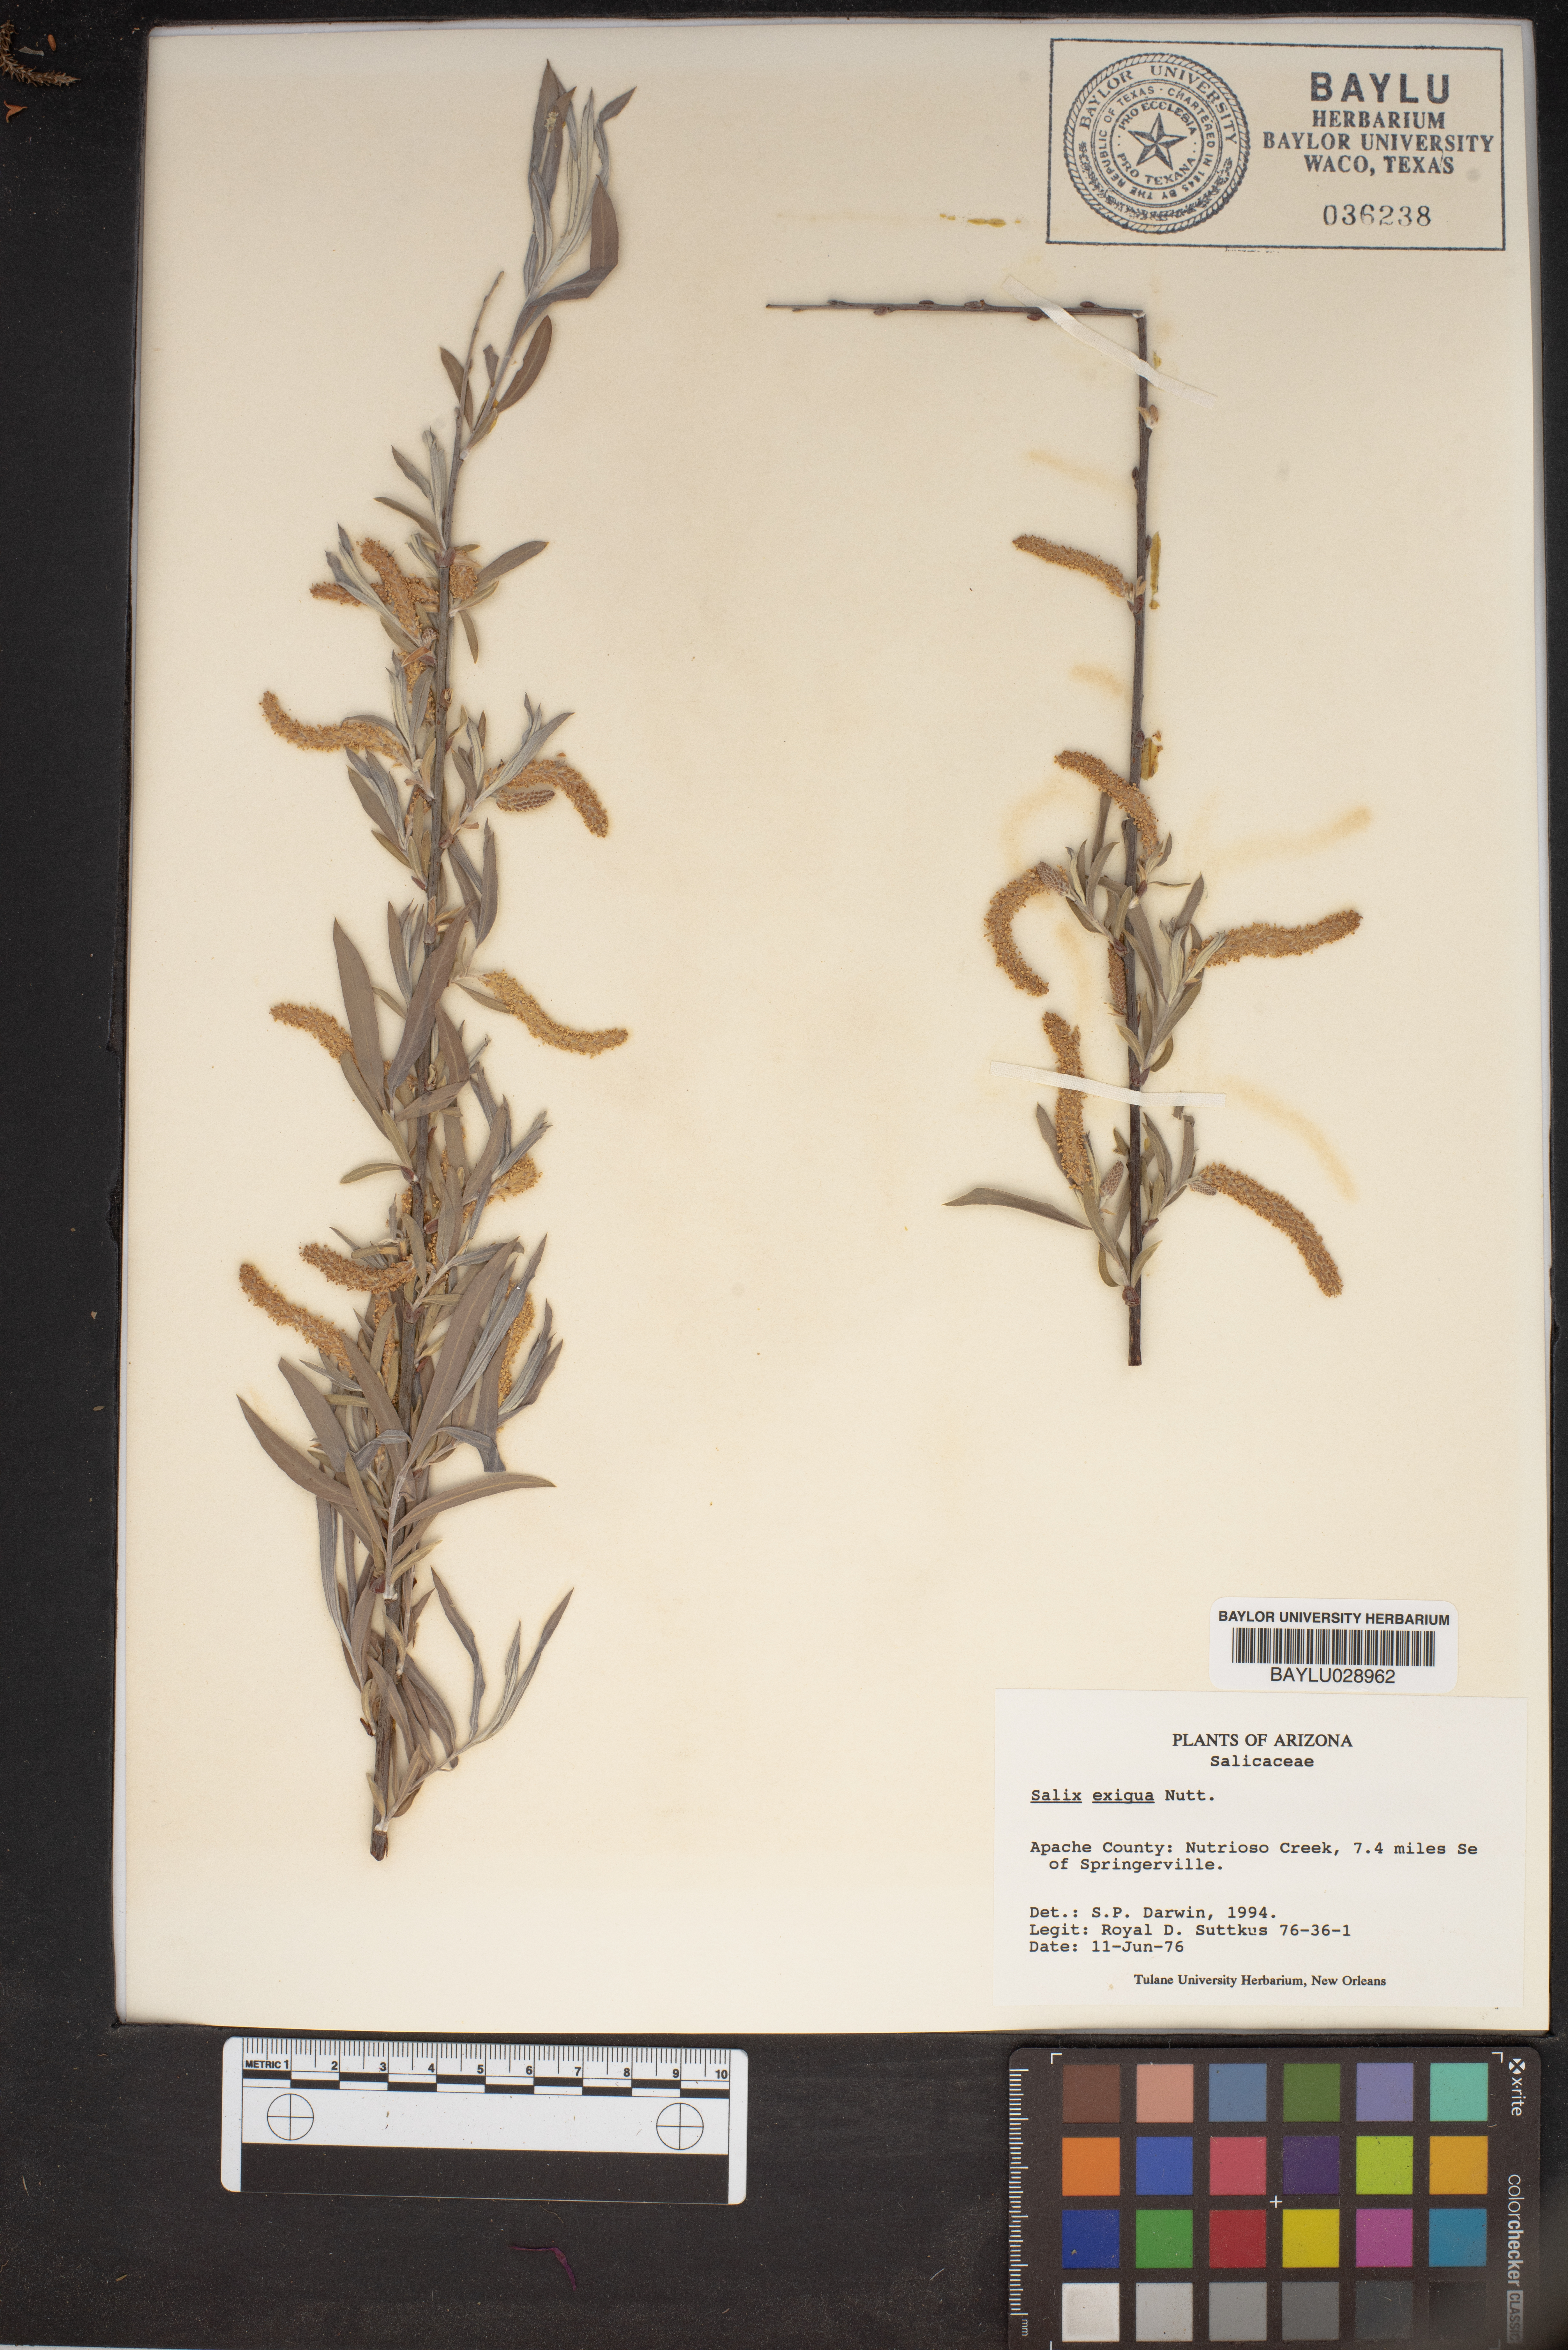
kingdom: Plantae
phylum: Tracheophyta
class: Magnoliopsida
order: Malpighiales
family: Salicaceae
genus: Salix
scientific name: Salix exigua
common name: Coyote willow
